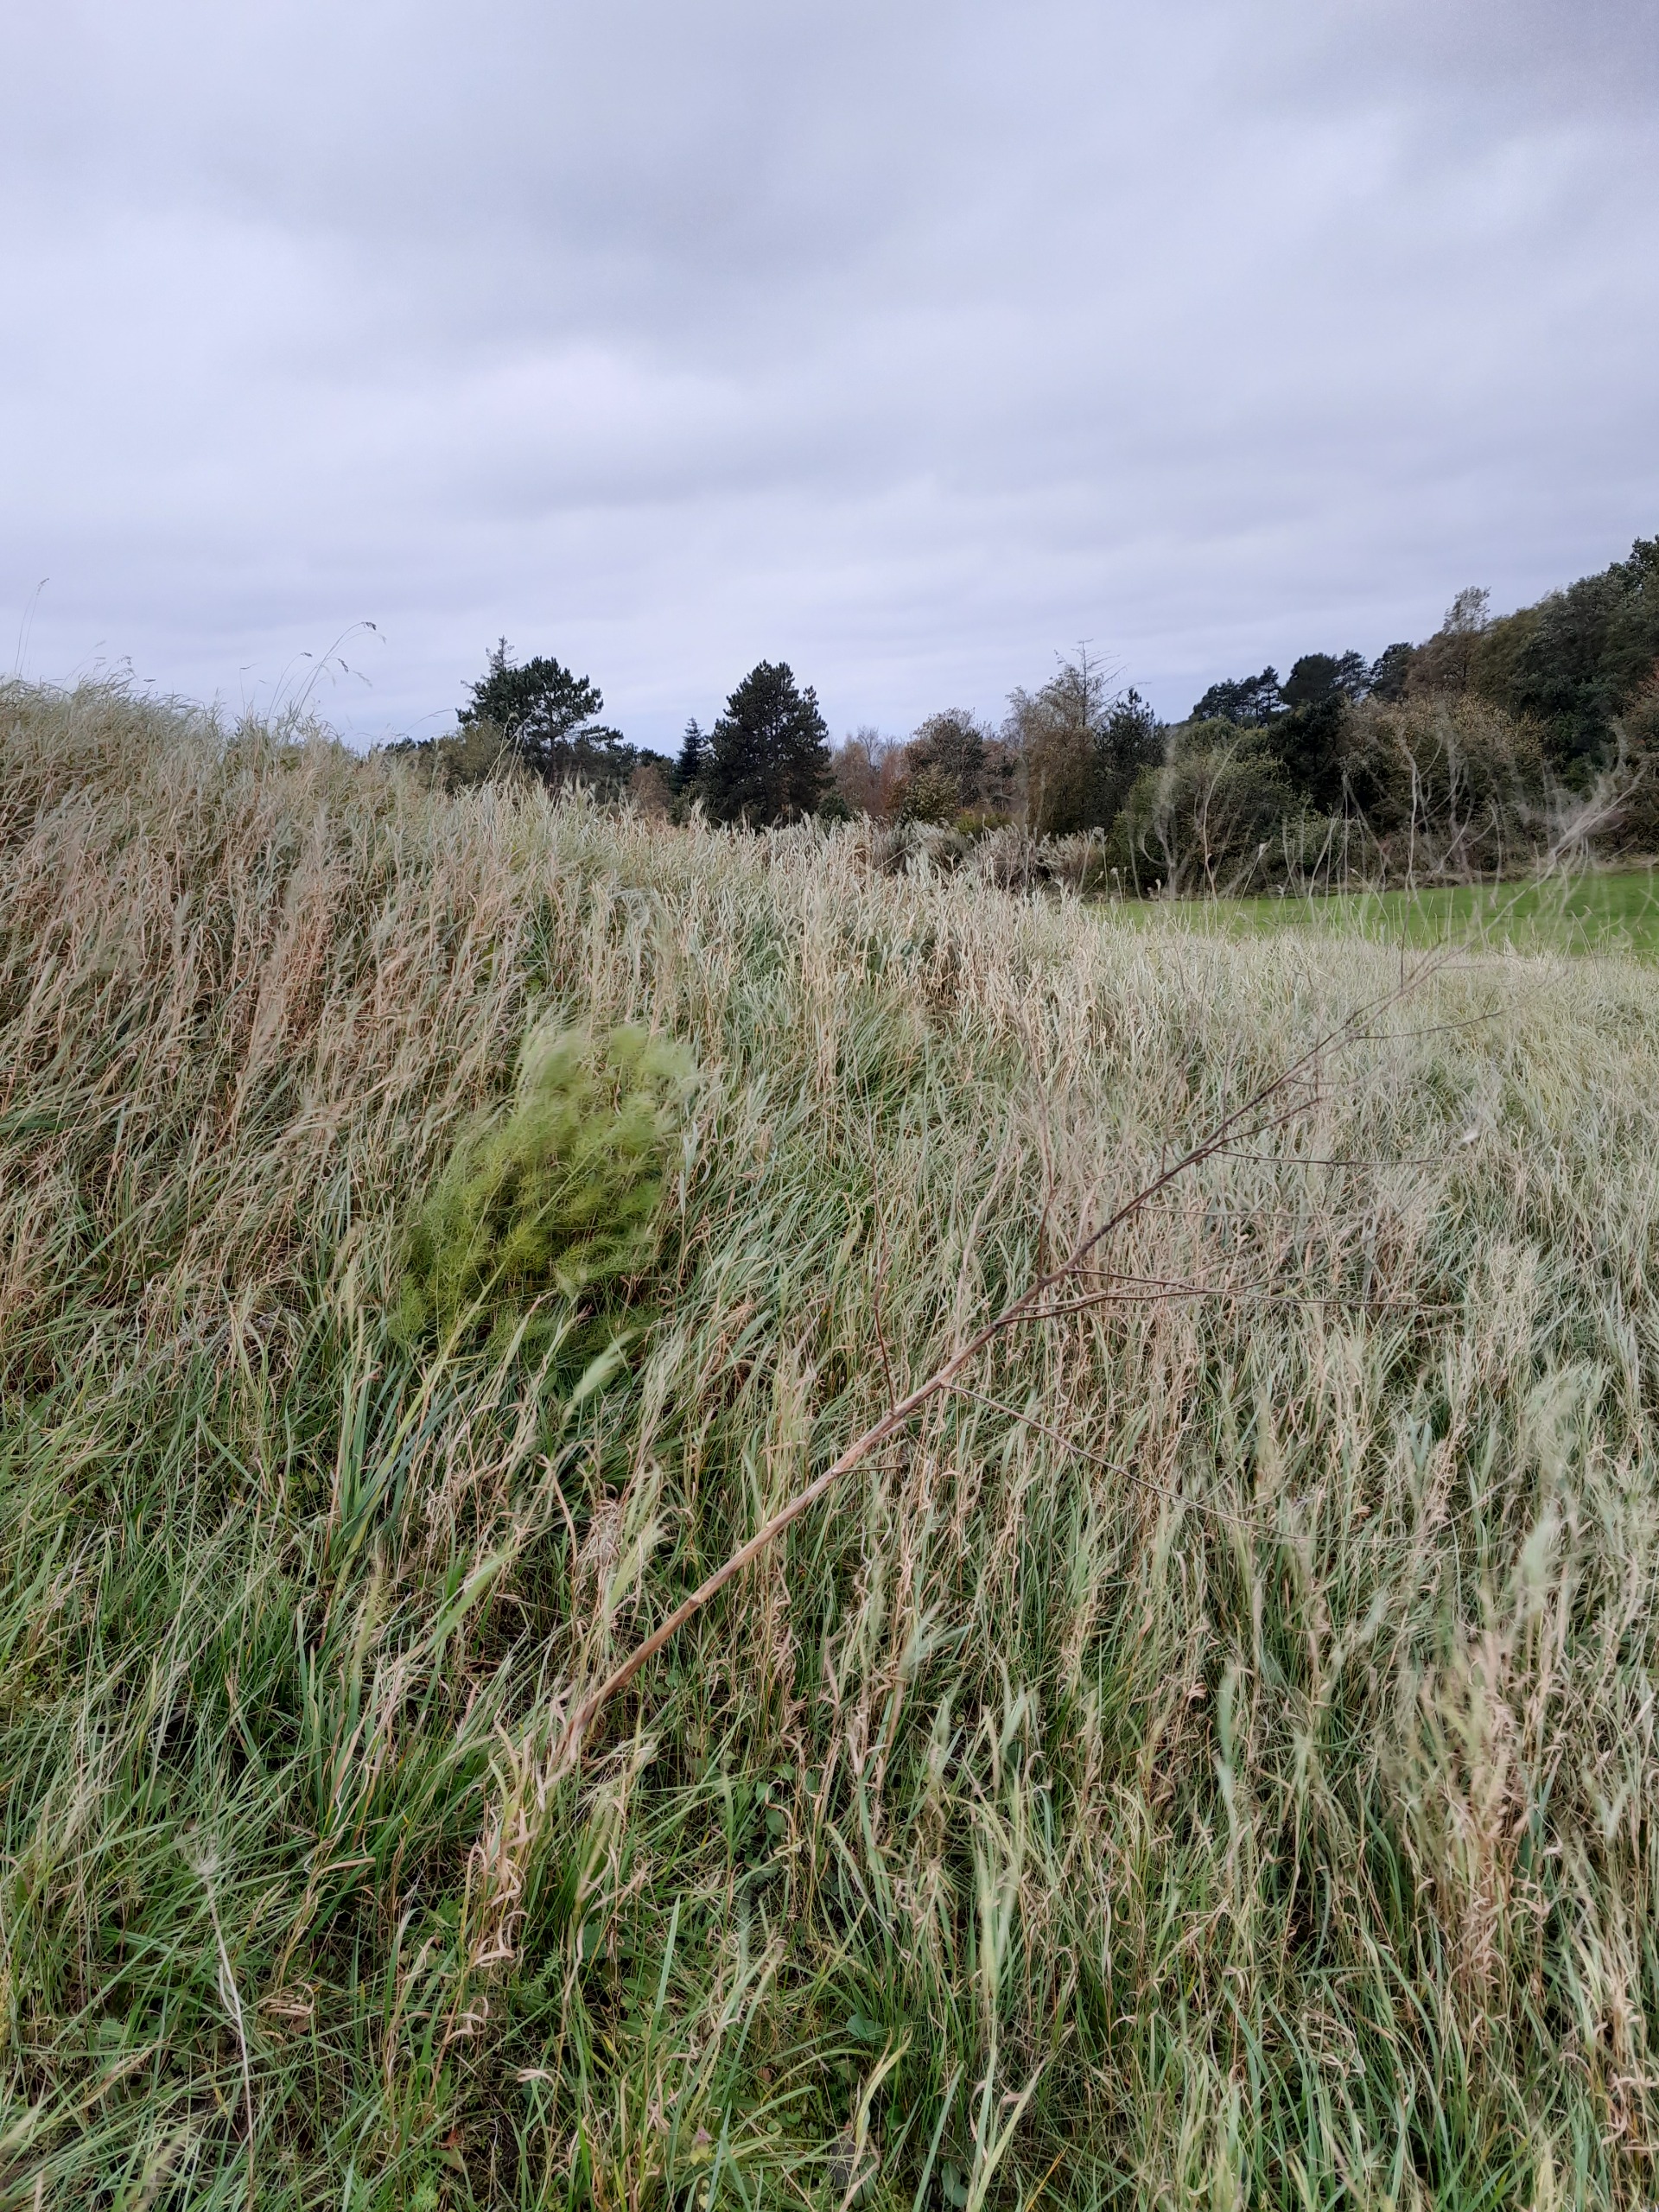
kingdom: Plantae
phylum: Tracheophyta
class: Liliopsida
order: Asparagales
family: Asparagaceae
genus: Asparagus
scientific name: Asparagus officinalis
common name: Asparges
